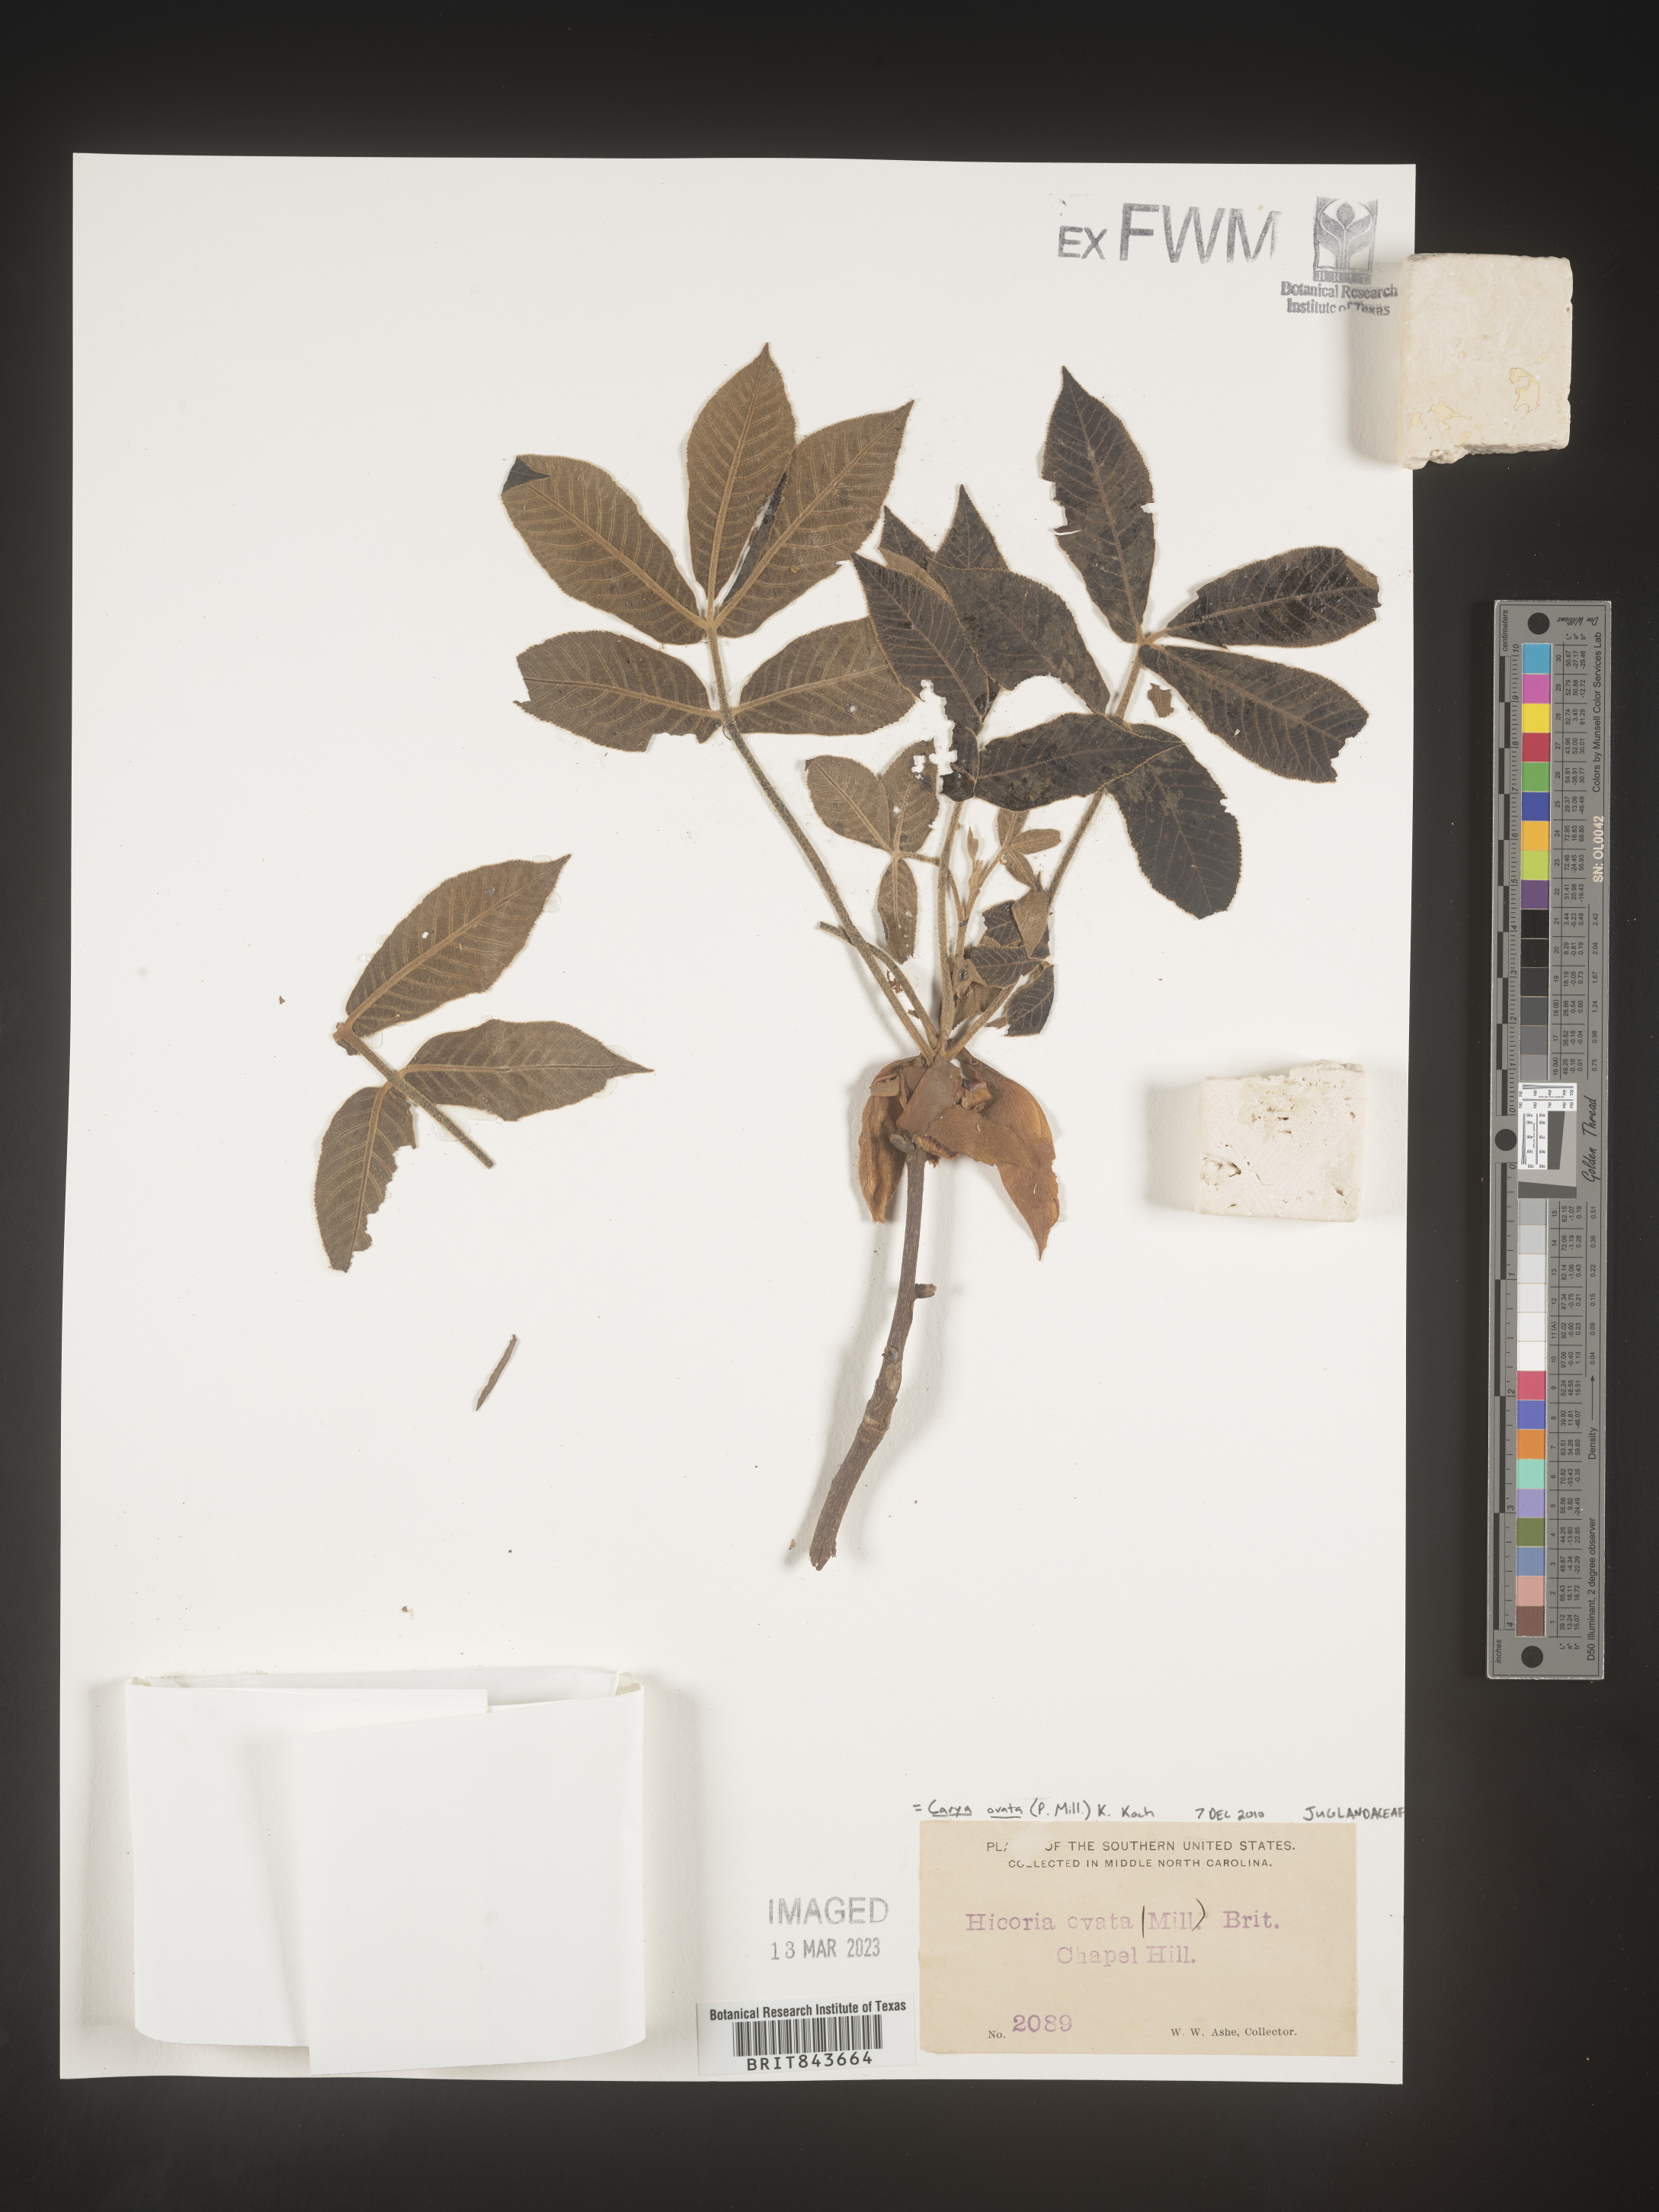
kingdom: Plantae
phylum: Tracheophyta
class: Magnoliopsida
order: Fagales
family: Juglandaceae
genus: Carya
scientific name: Carya ovata
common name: Shagbark hickory
